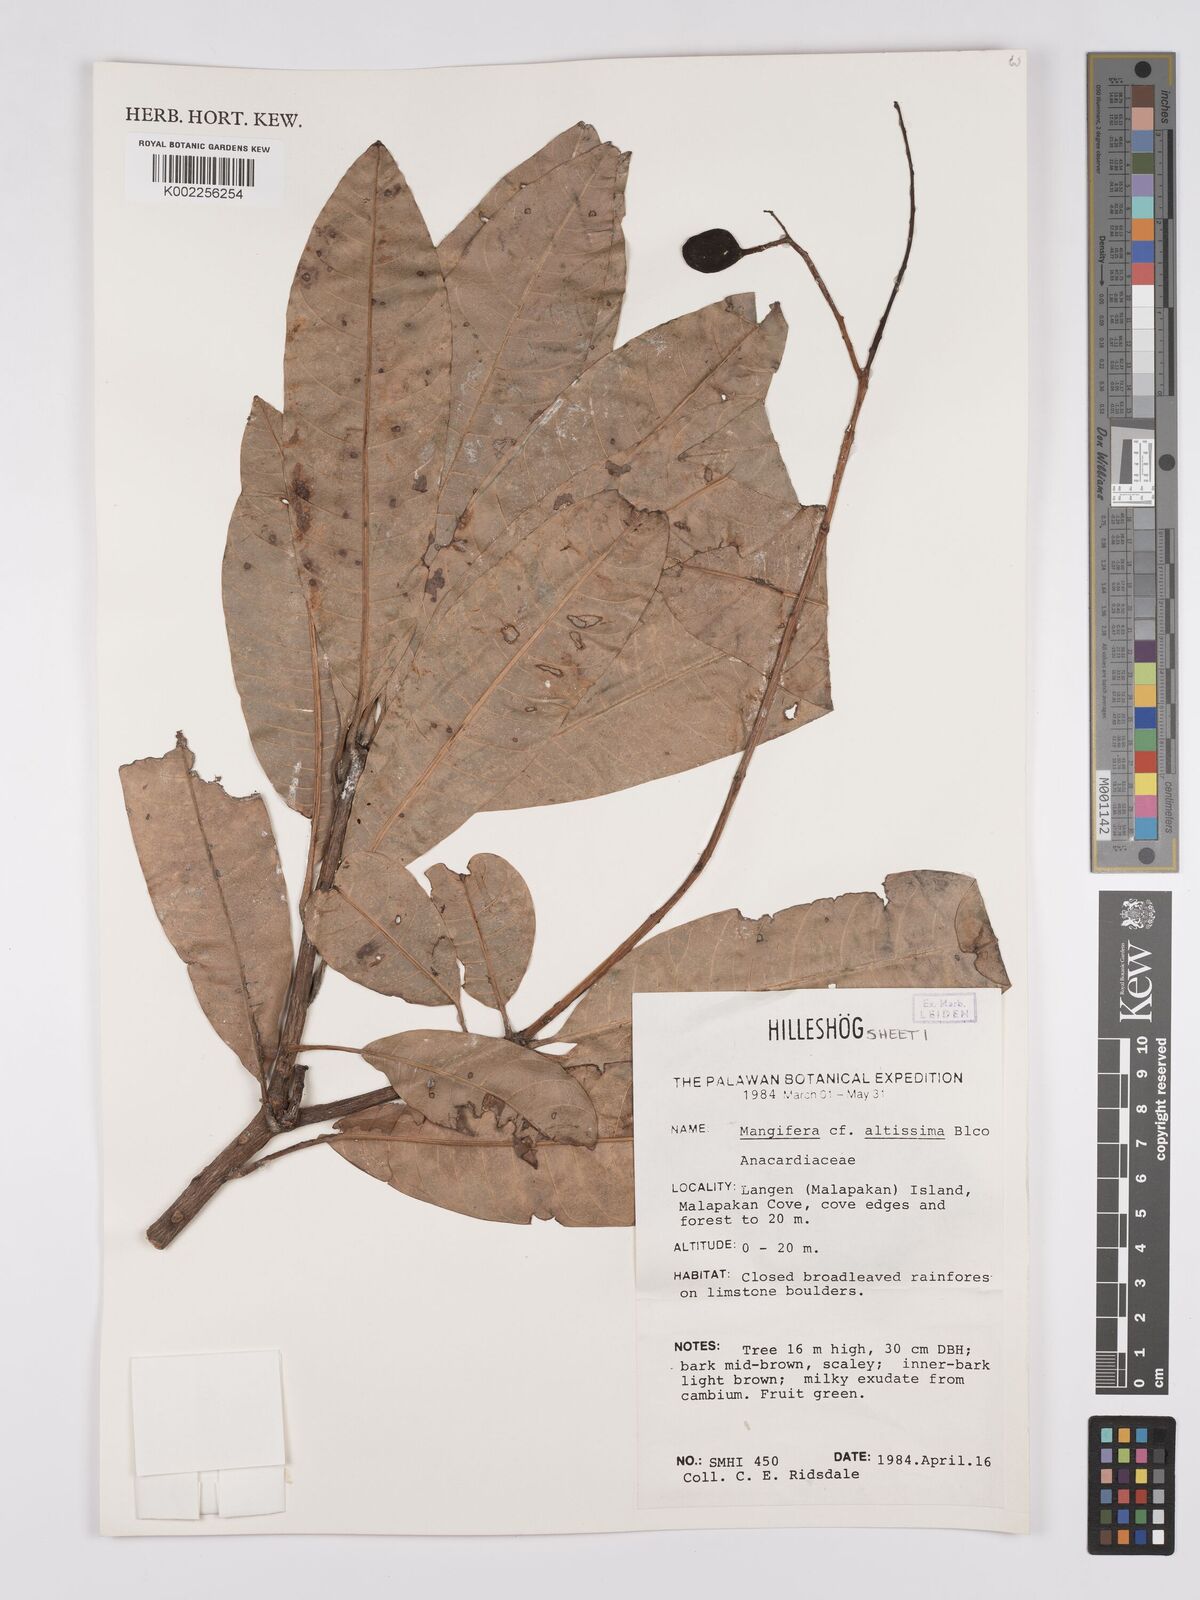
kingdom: Plantae
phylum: Tracheophyta
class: Magnoliopsida
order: Sapindales
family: Anacardiaceae
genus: Mangifera
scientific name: Mangifera altissima
